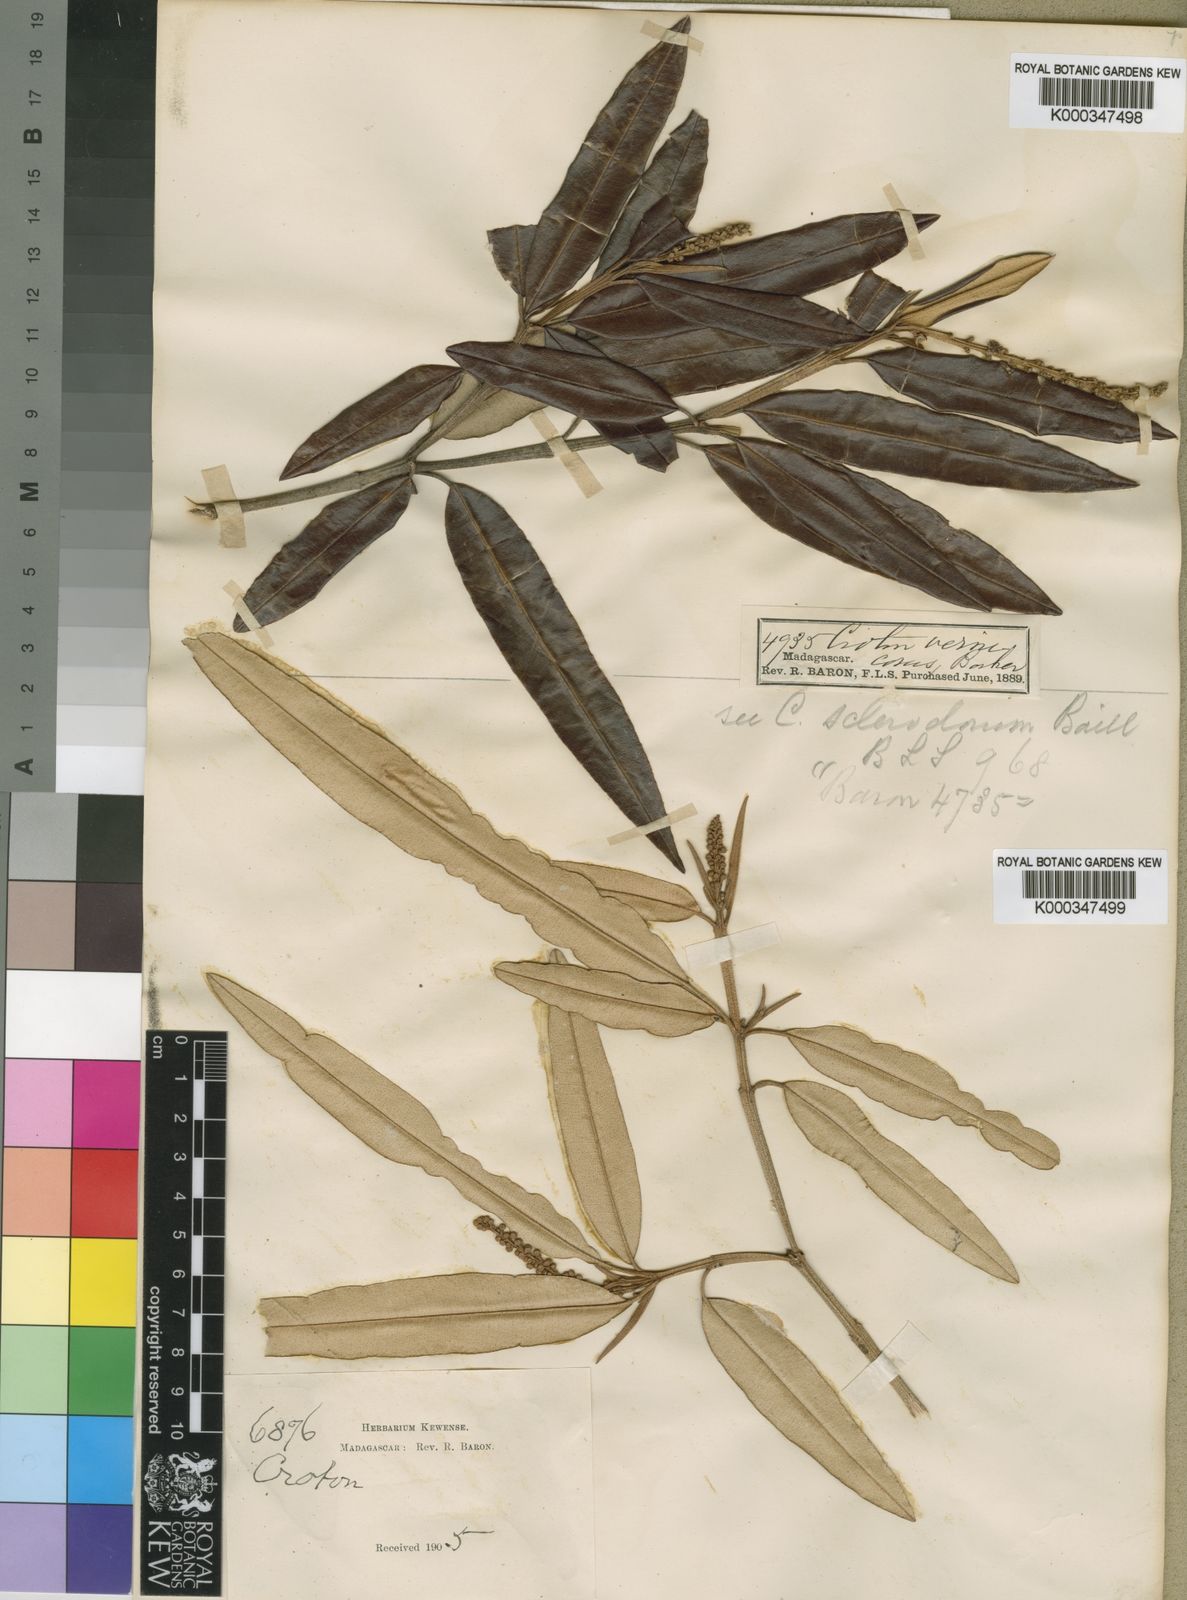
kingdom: Plantae
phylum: Tracheophyta
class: Magnoliopsida
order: Malpighiales
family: Euphorbiaceae
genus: Croton
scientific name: Croton
